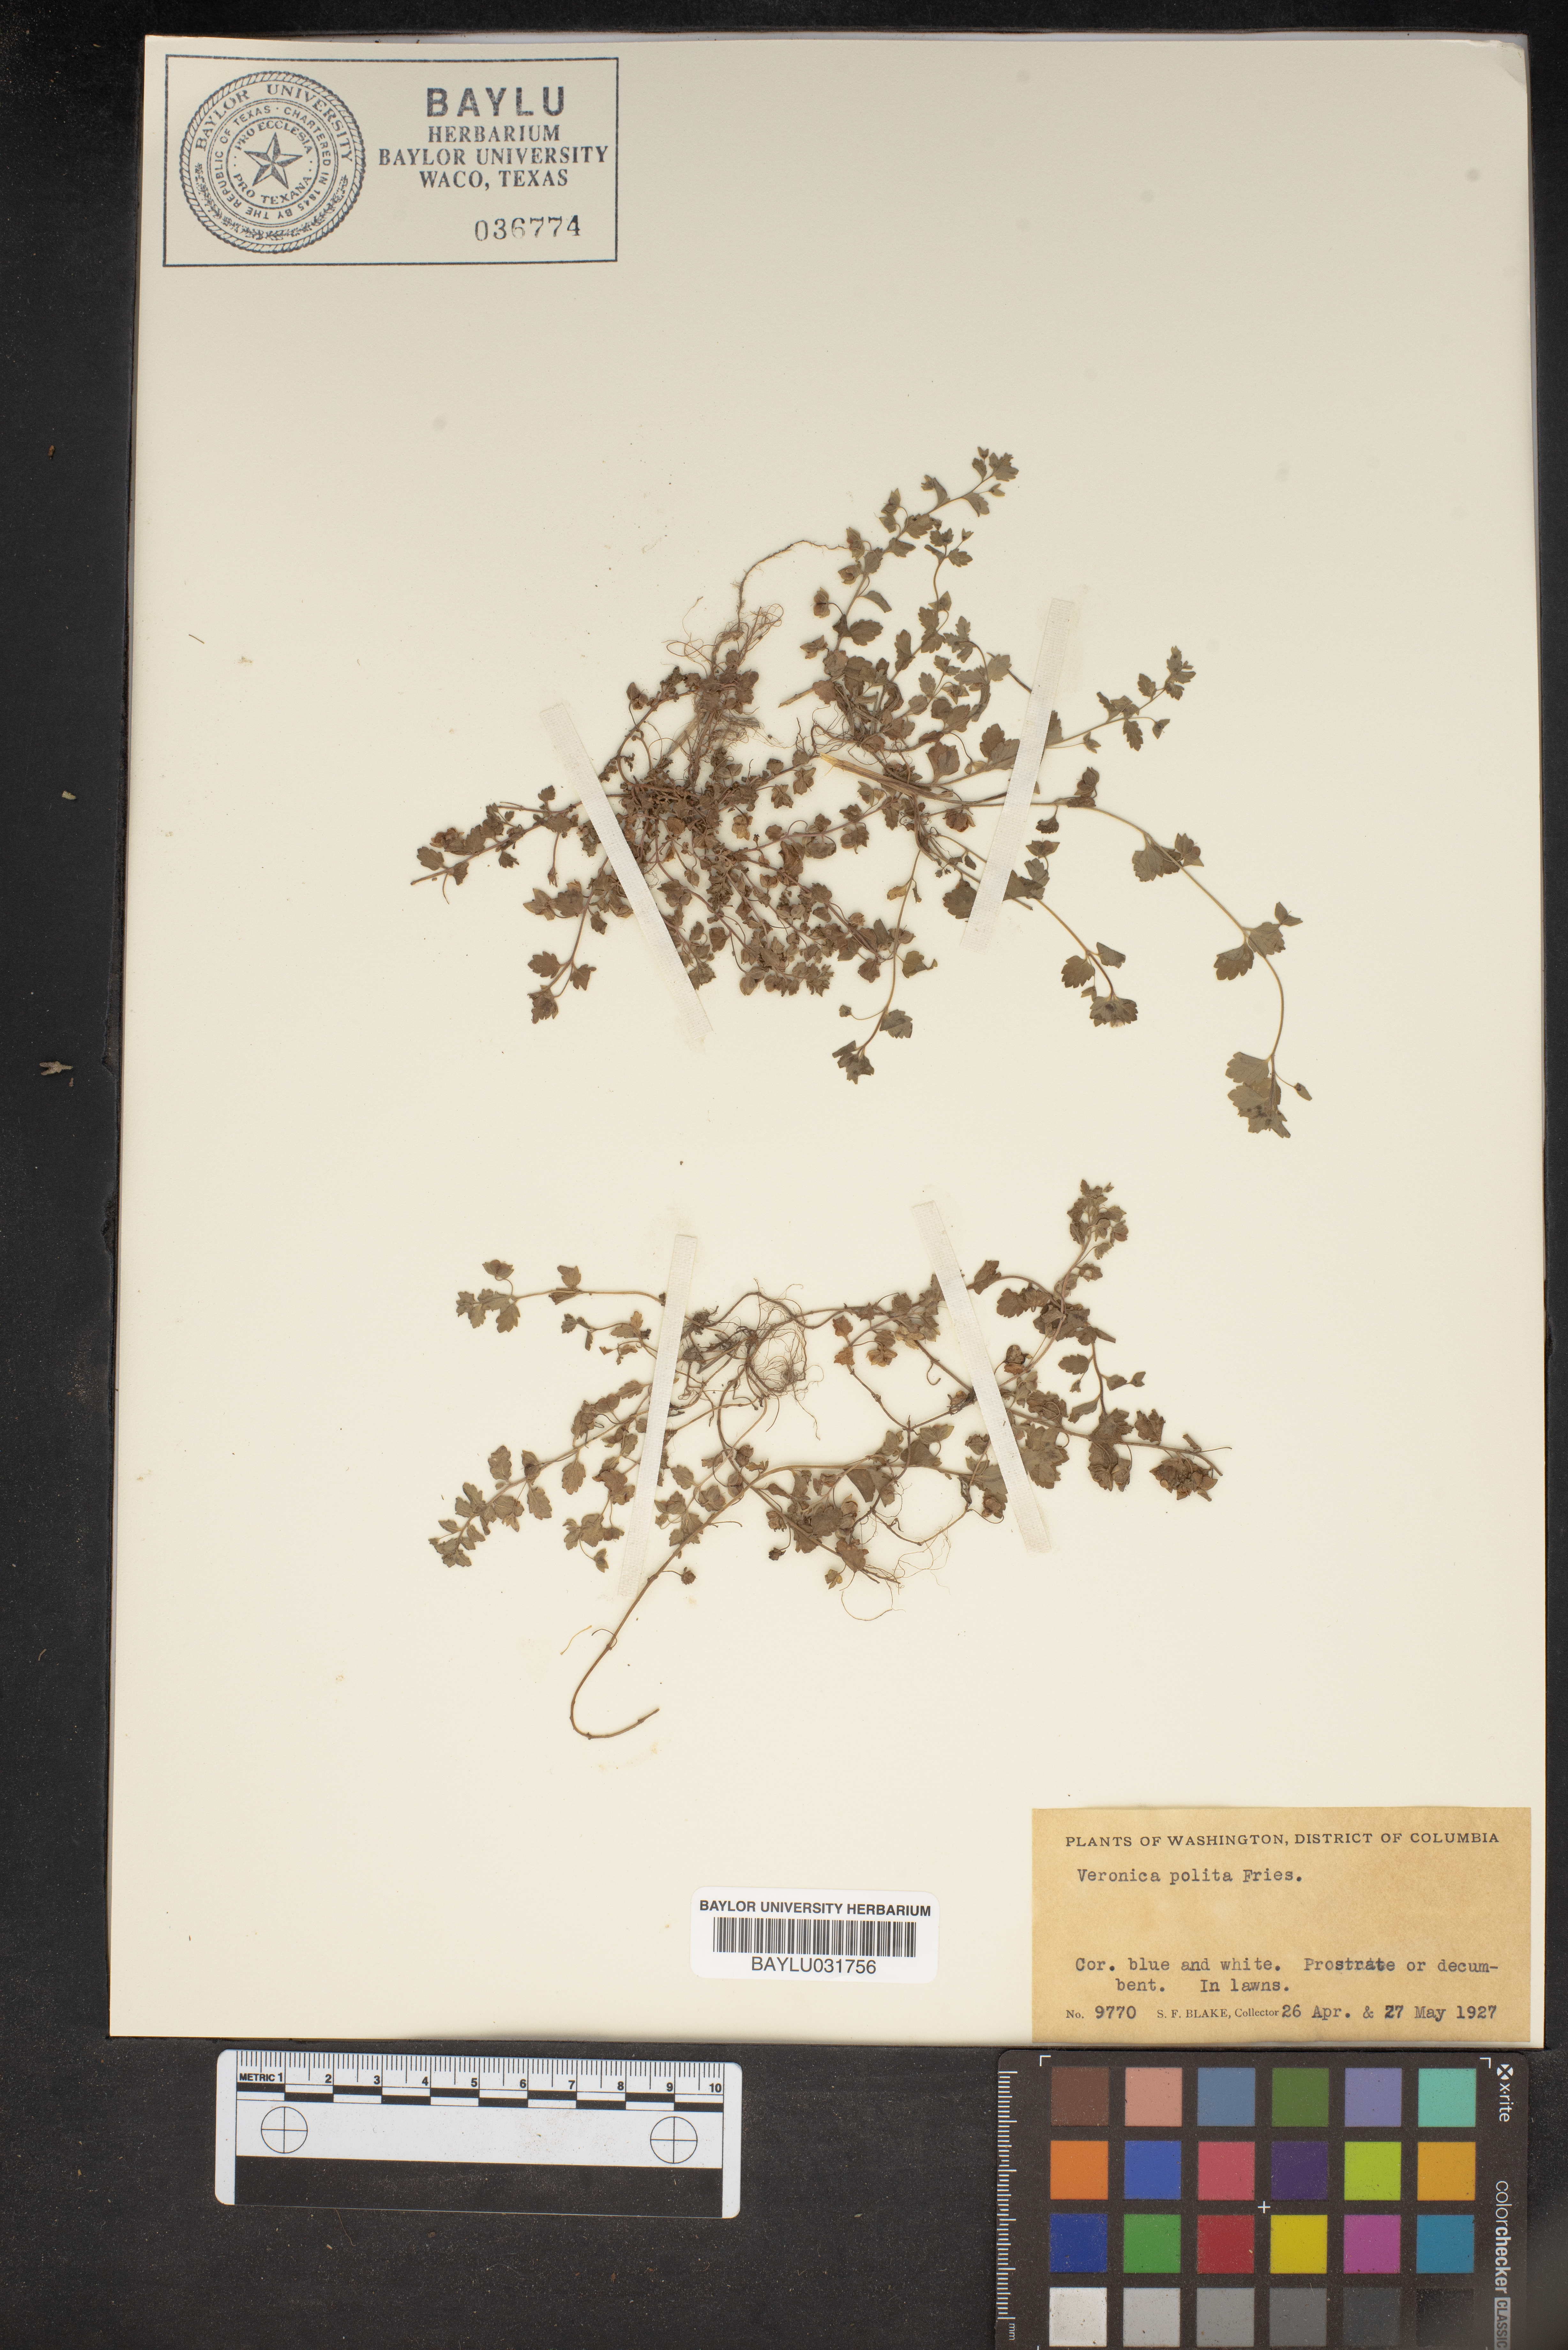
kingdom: Plantae
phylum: Tracheophyta
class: Magnoliopsida
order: Lamiales
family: Plantaginaceae
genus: Veronica
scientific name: Veronica polita
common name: Grey field-speedwell
